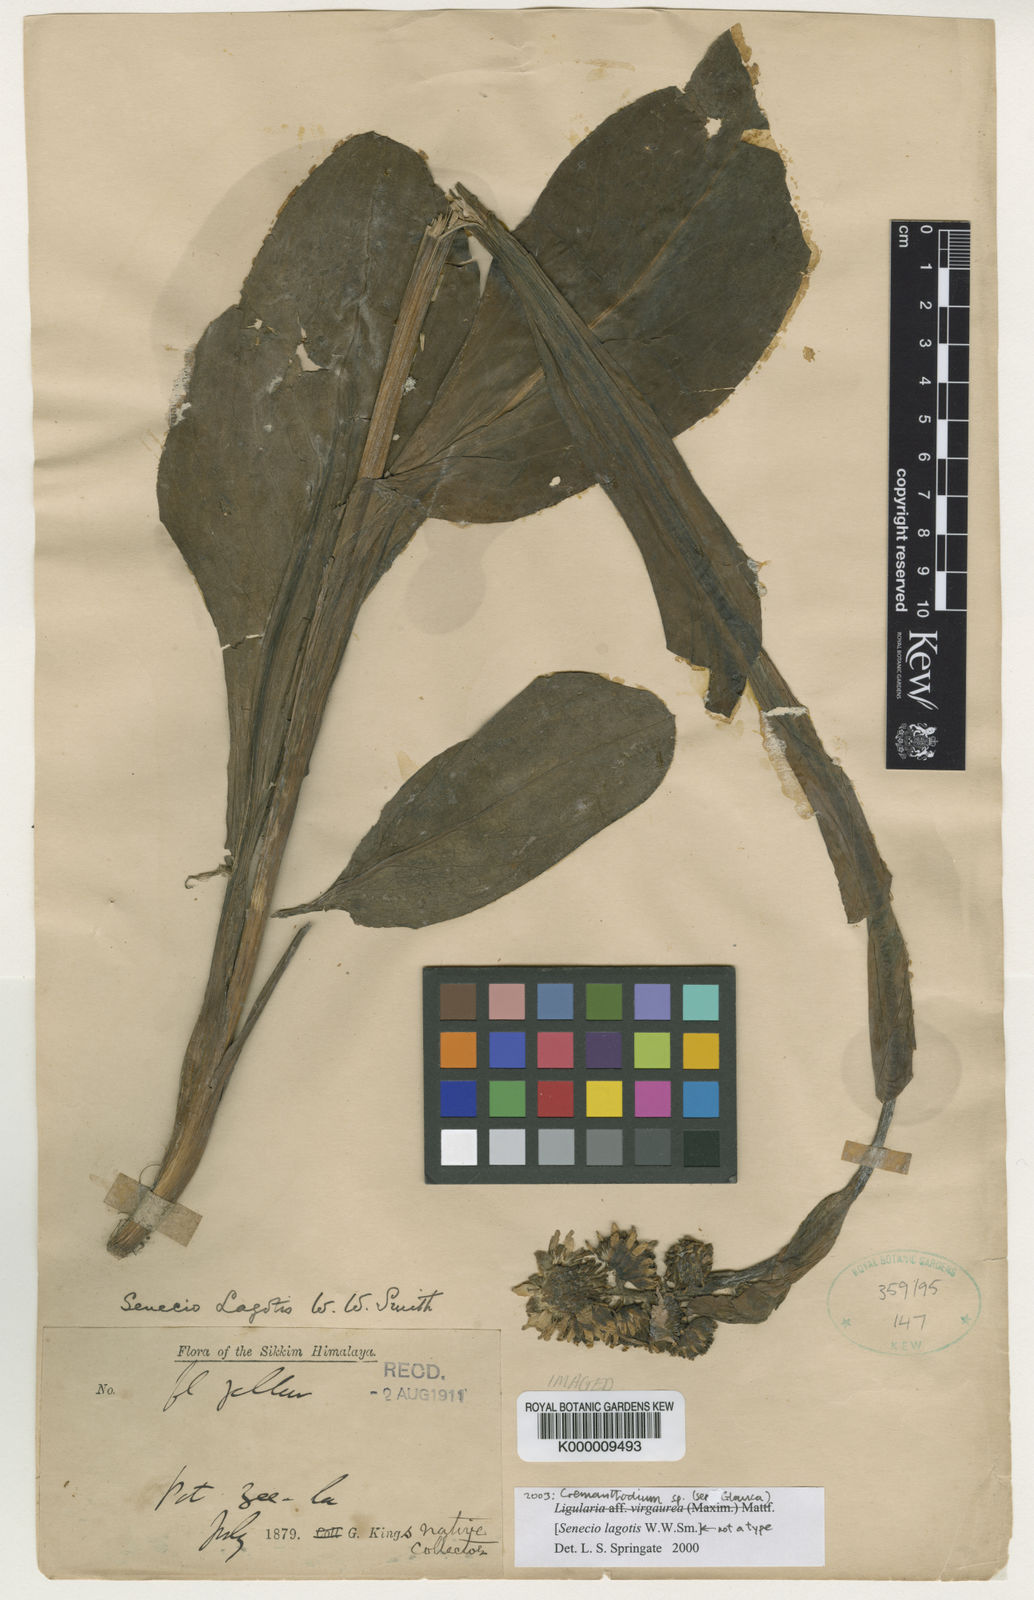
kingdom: Plantae
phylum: Tracheophyta
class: Magnoliopsida
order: Asterales
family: Asteraceae
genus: Ligularia
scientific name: Ligularia virgaurea
